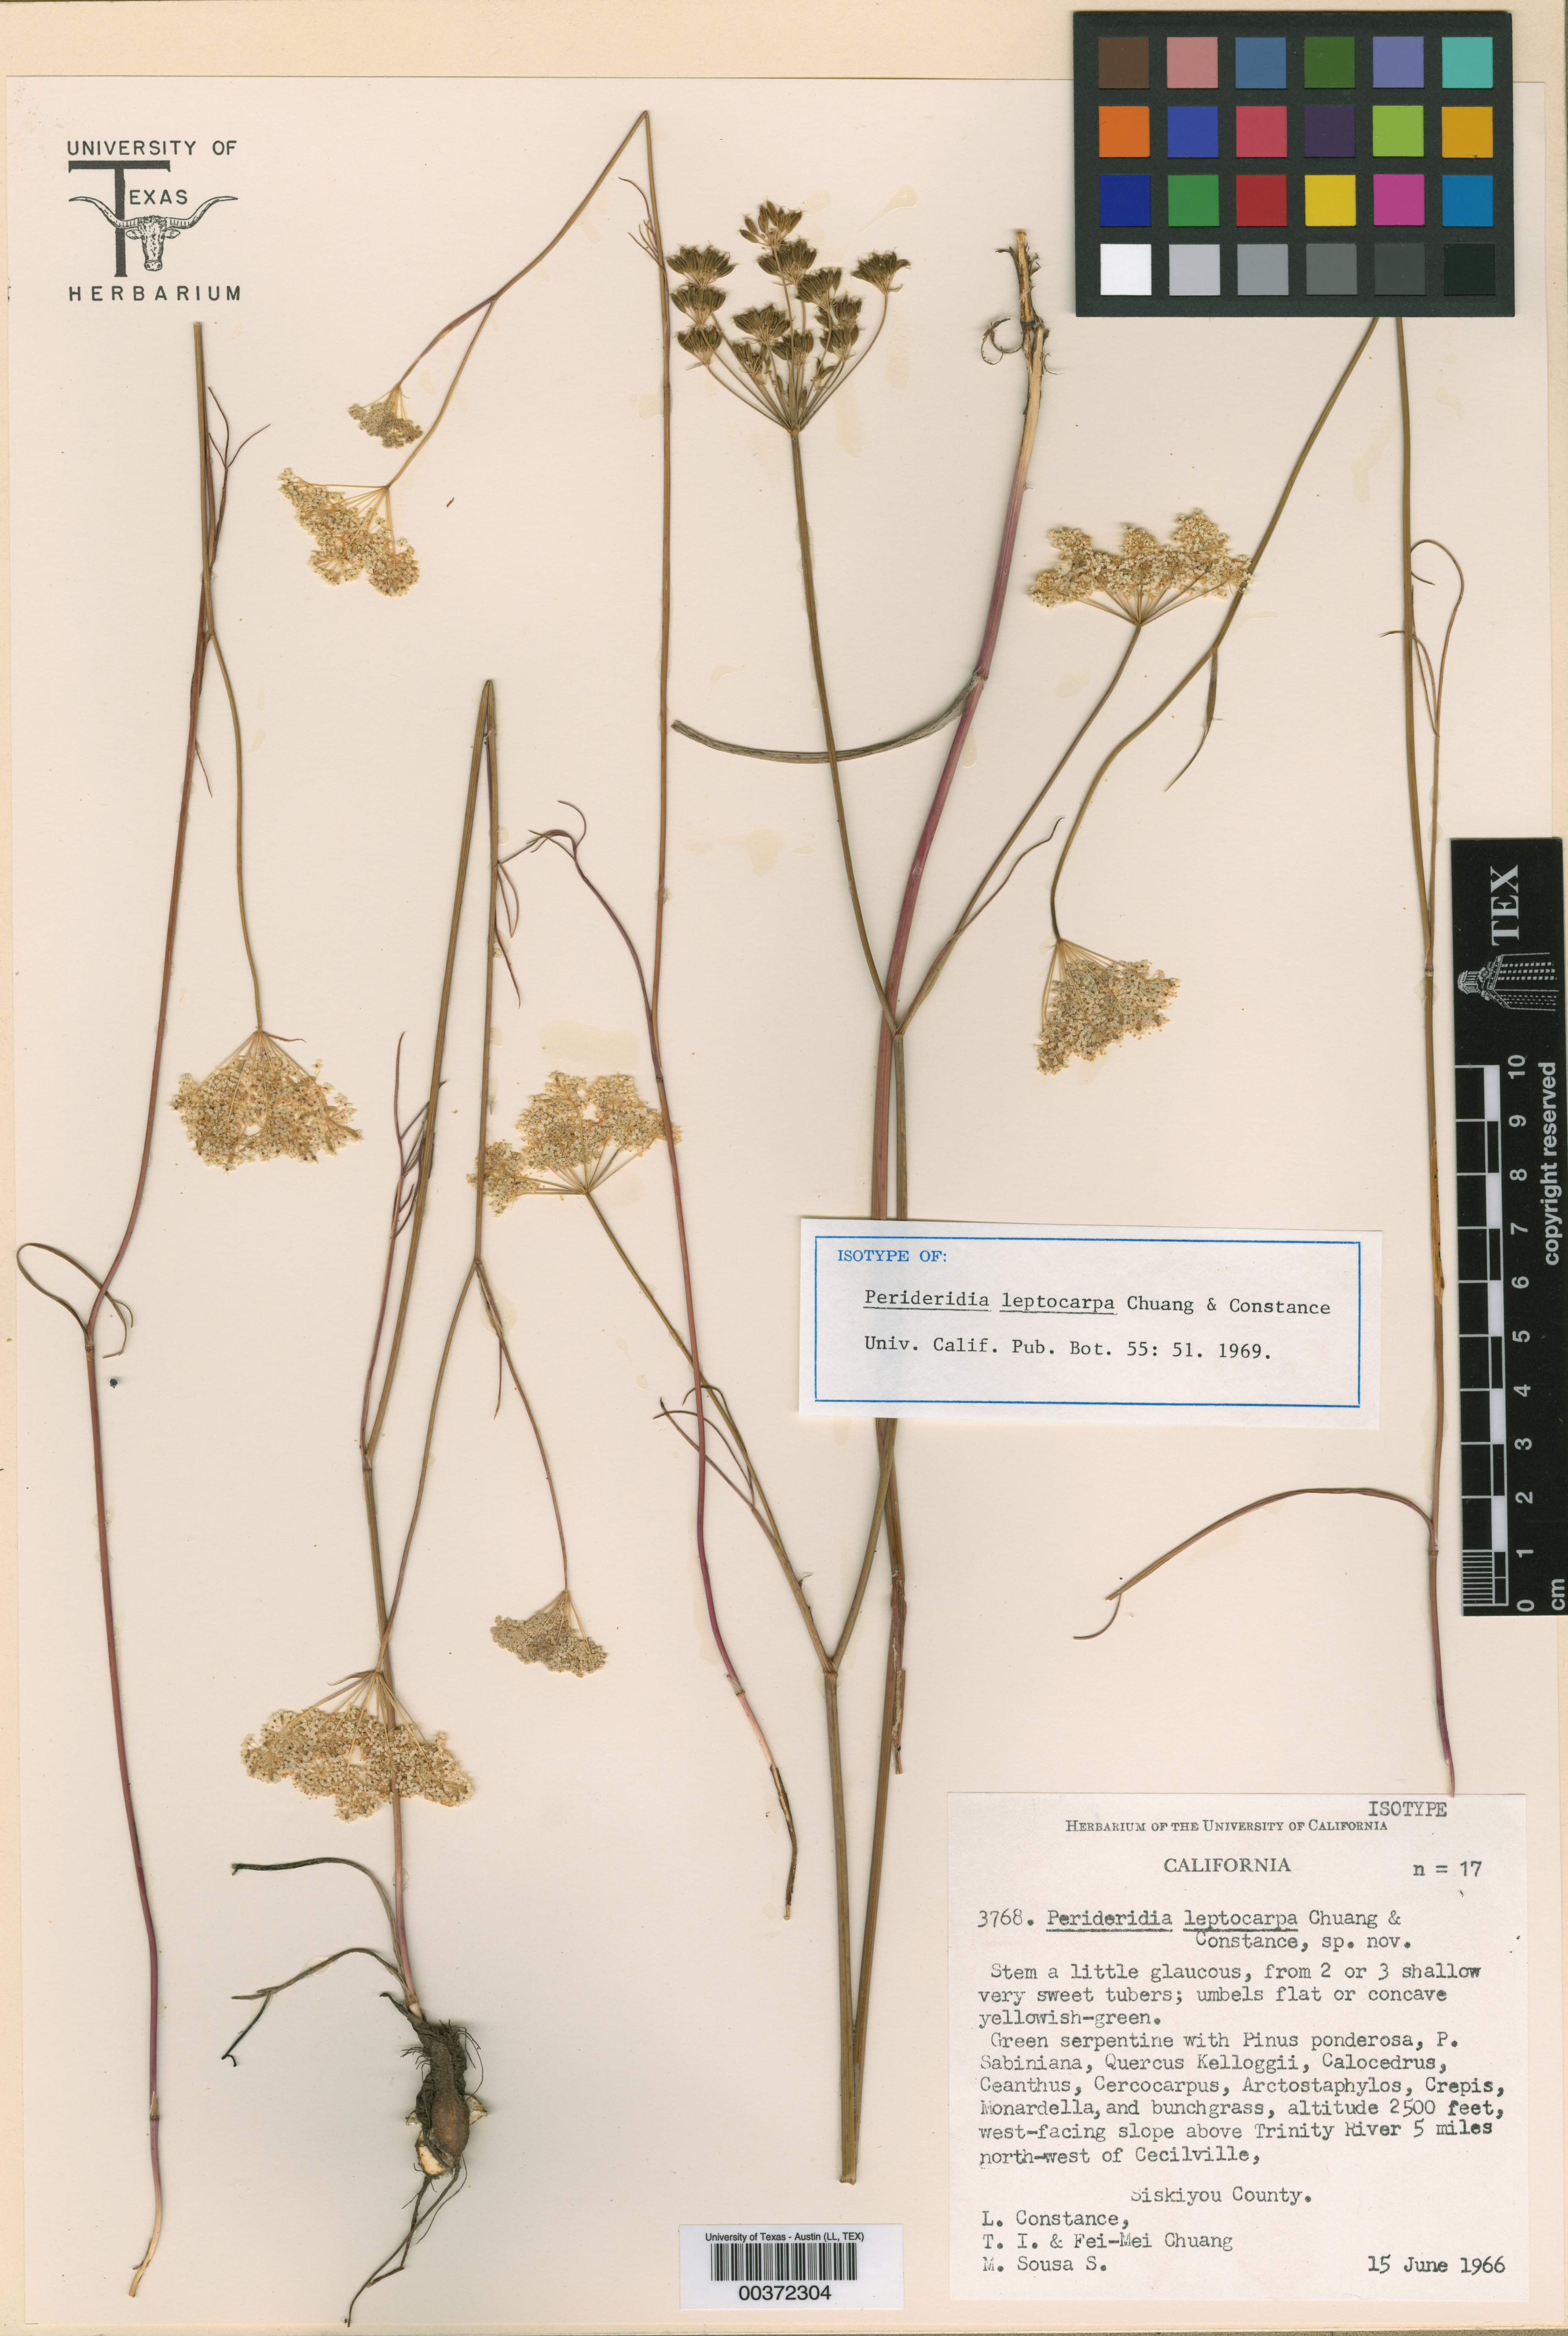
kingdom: Plantae
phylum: Tracheophyta
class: Magnoliopsida
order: Apiales
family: Apiaceae
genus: Perideridia
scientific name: Perideridia leptocarpa
